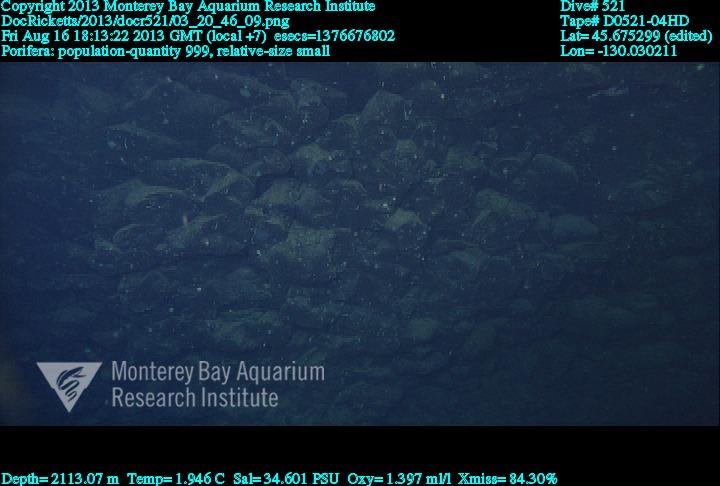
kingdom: Animalia
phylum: Porifera
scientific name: Porifera
